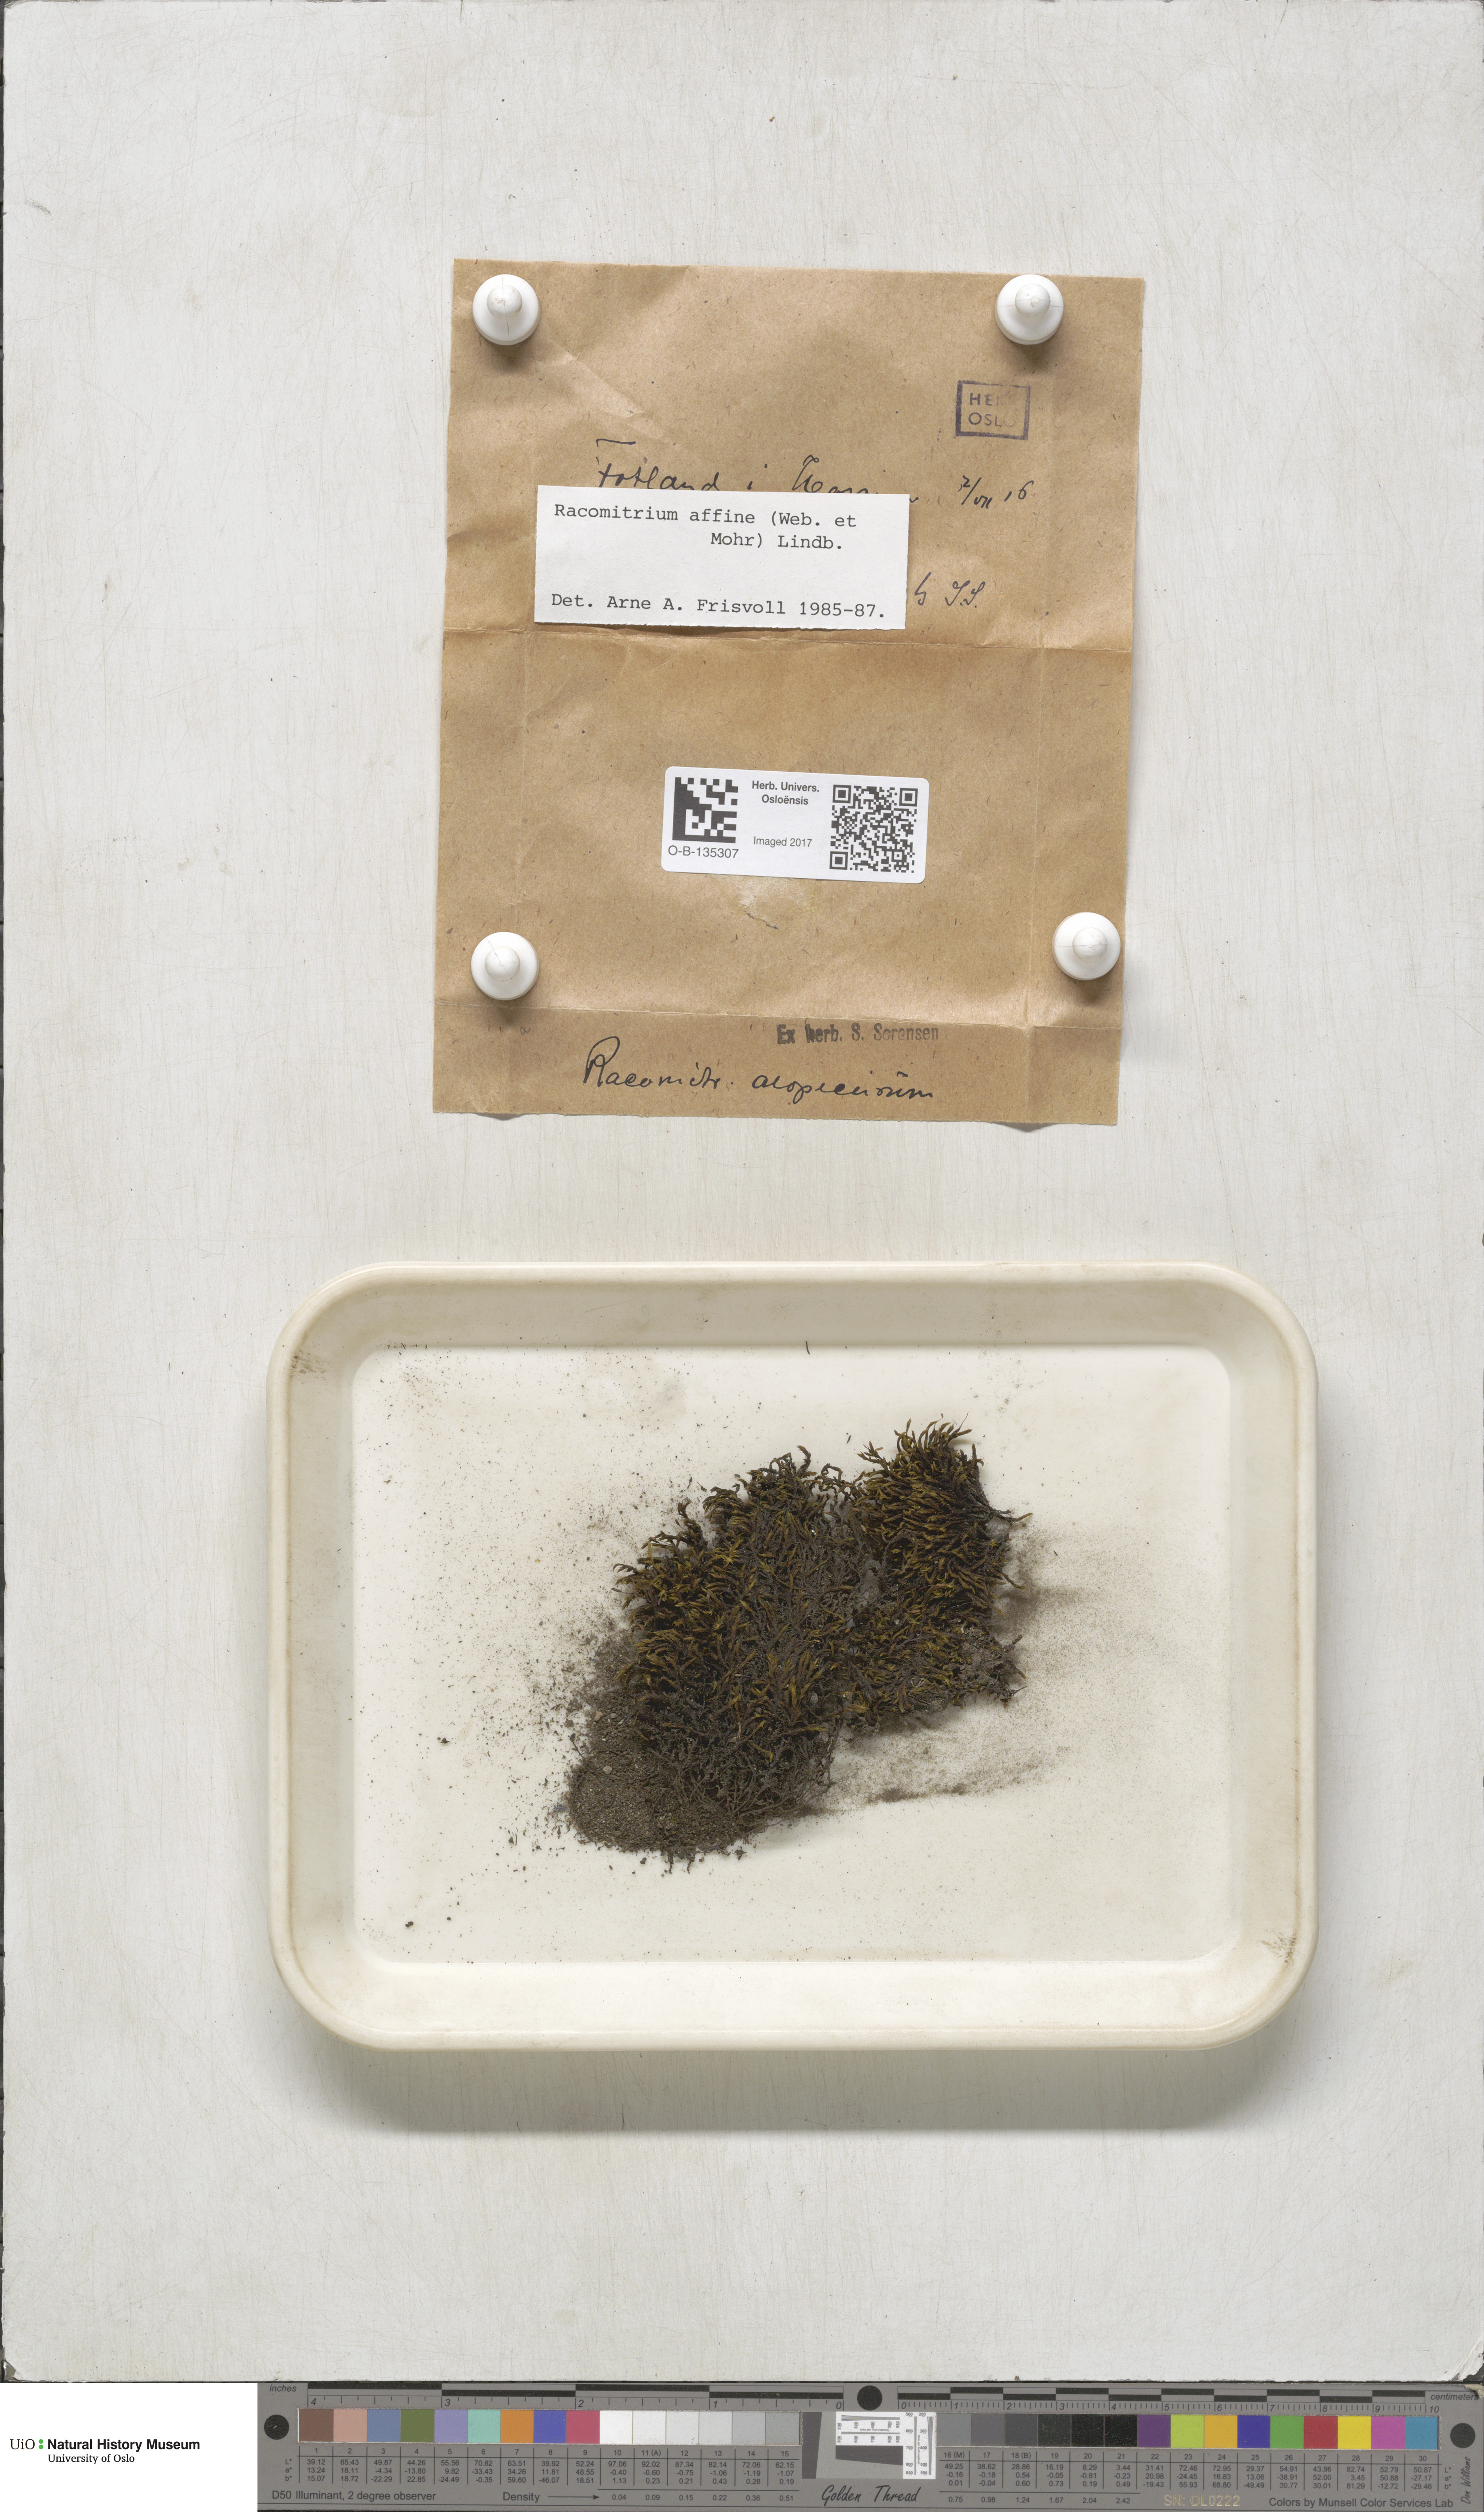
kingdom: Plantae
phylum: Bryophyta
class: Bryopsida
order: Grimmiales
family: Grimmiaceae
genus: Bucklandiella
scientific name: Bucklandiella affinis
